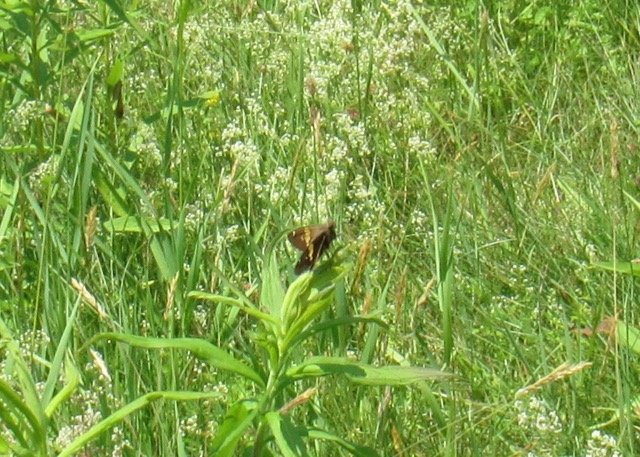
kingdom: Animalia
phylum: Arthropoda
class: Insecta
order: Lepidoptera
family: Hesperiidae
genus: Epargyreus
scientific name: Epargyreus clarus
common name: Silver-spotted Skipper
